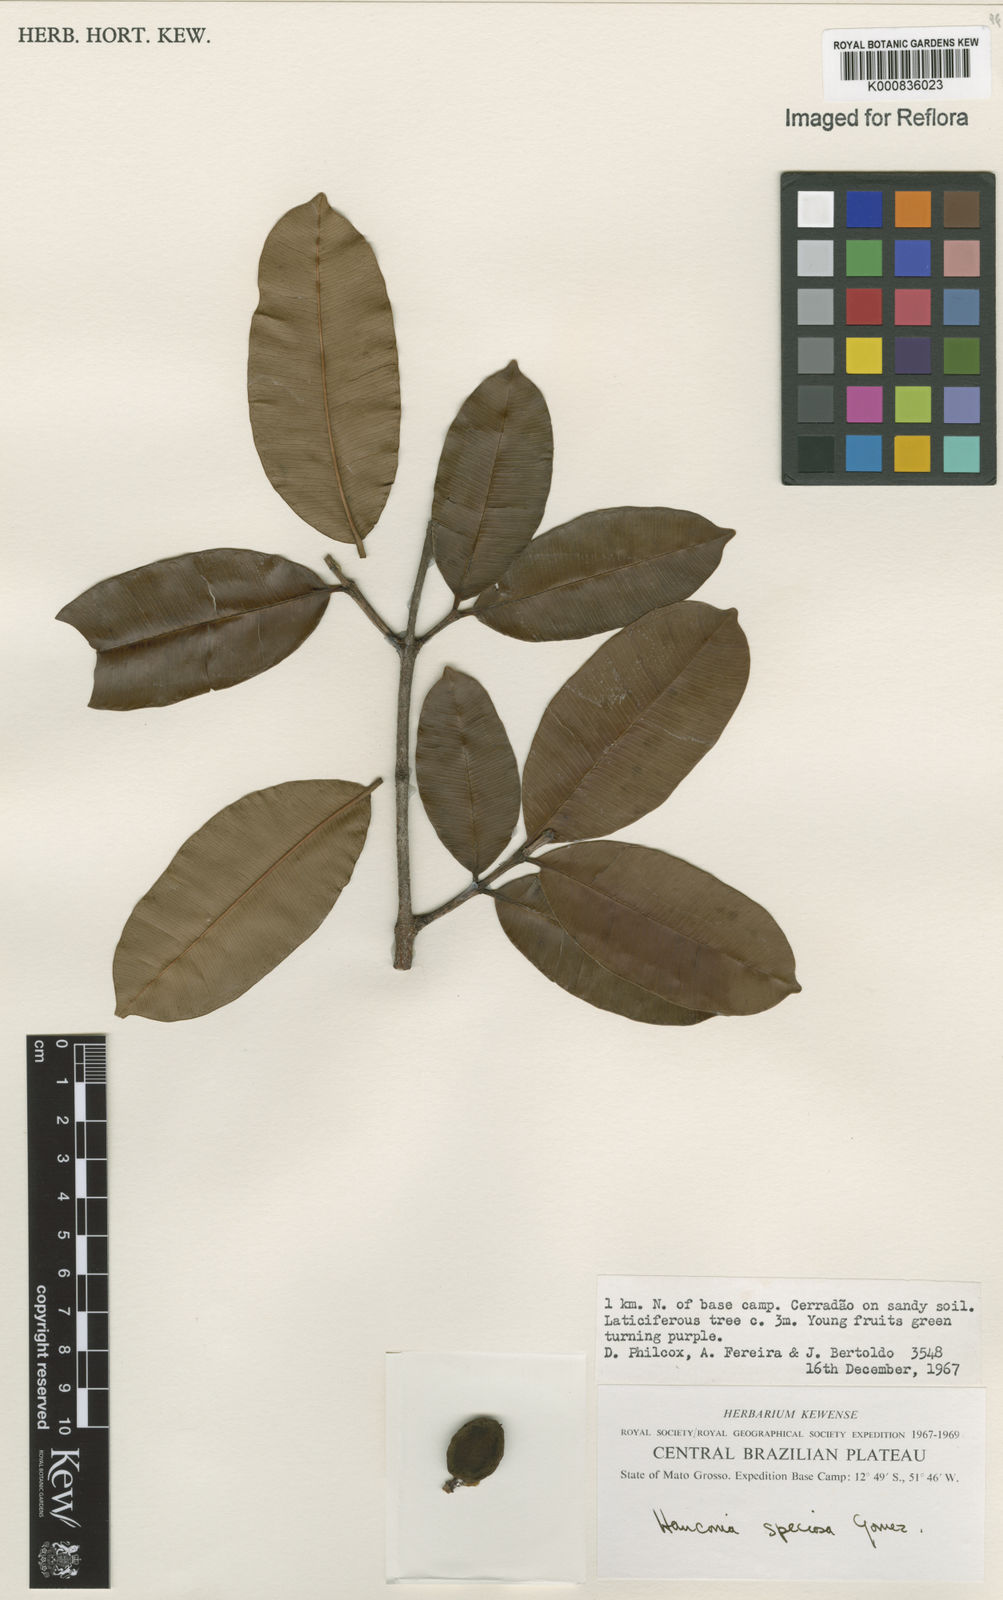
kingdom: Plantae
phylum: Tracheophyta
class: Magnoliopsida
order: Gentianales
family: Apocynaceae
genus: Hancornia
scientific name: Hancornia speciosa
